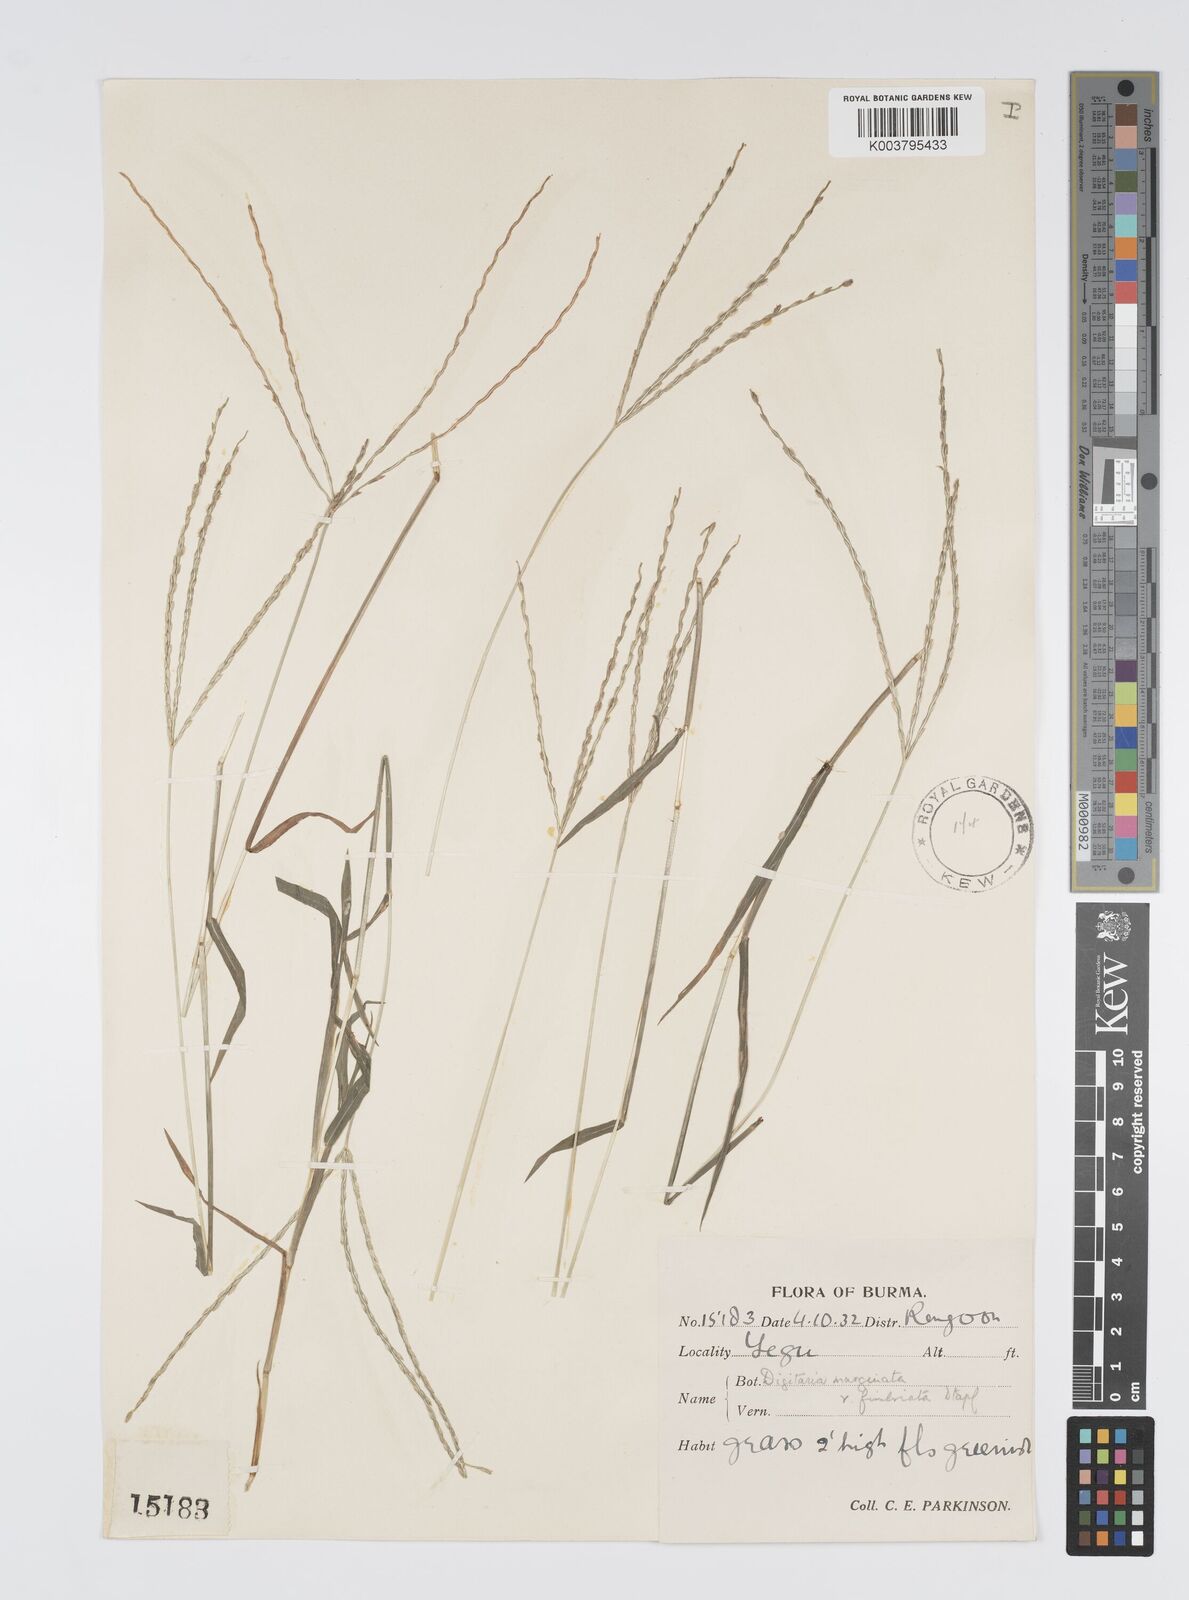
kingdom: Plantae
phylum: Tracheophyta
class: Liliopsida
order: Poales
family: Poaceae
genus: Digitaria
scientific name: Digitaria bicornis
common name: Asian crabgrass
